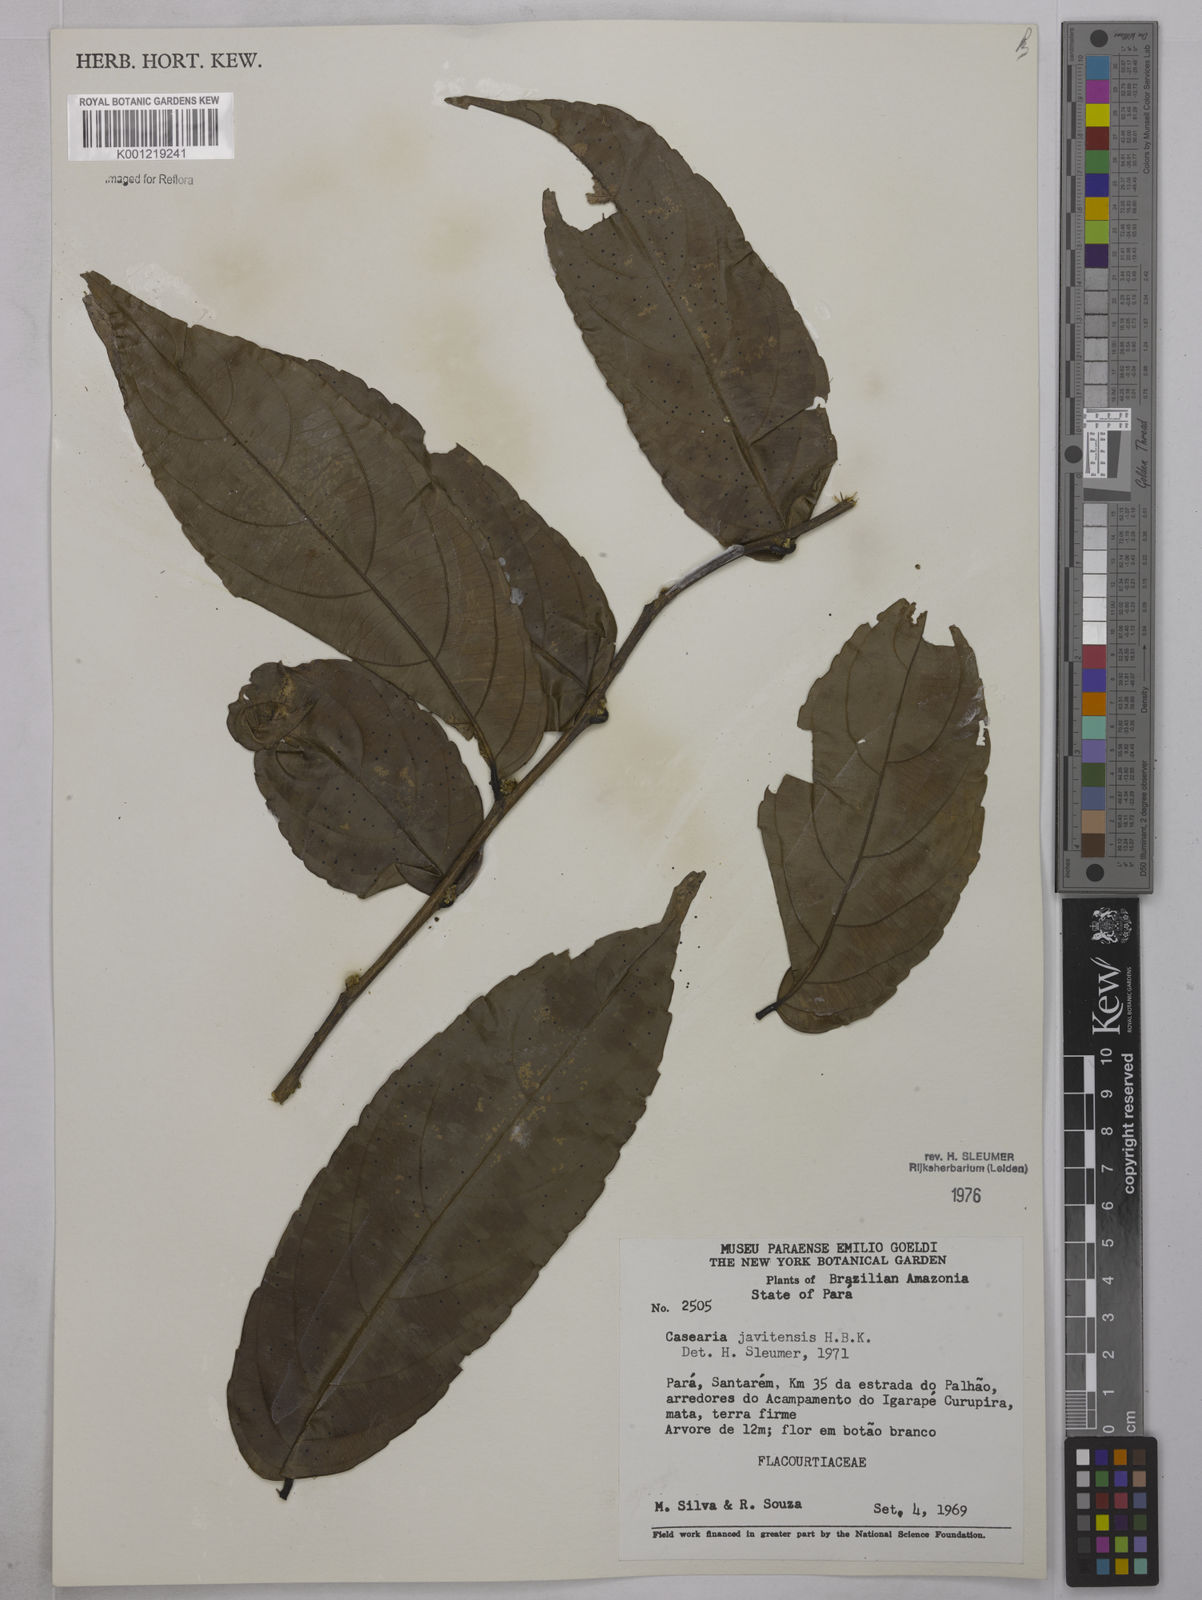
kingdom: Plantae
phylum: Tracheophyta
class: Magnoliopsida
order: Malpighiales
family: Salicaceae
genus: Piparea
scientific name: Piparea multiflora
